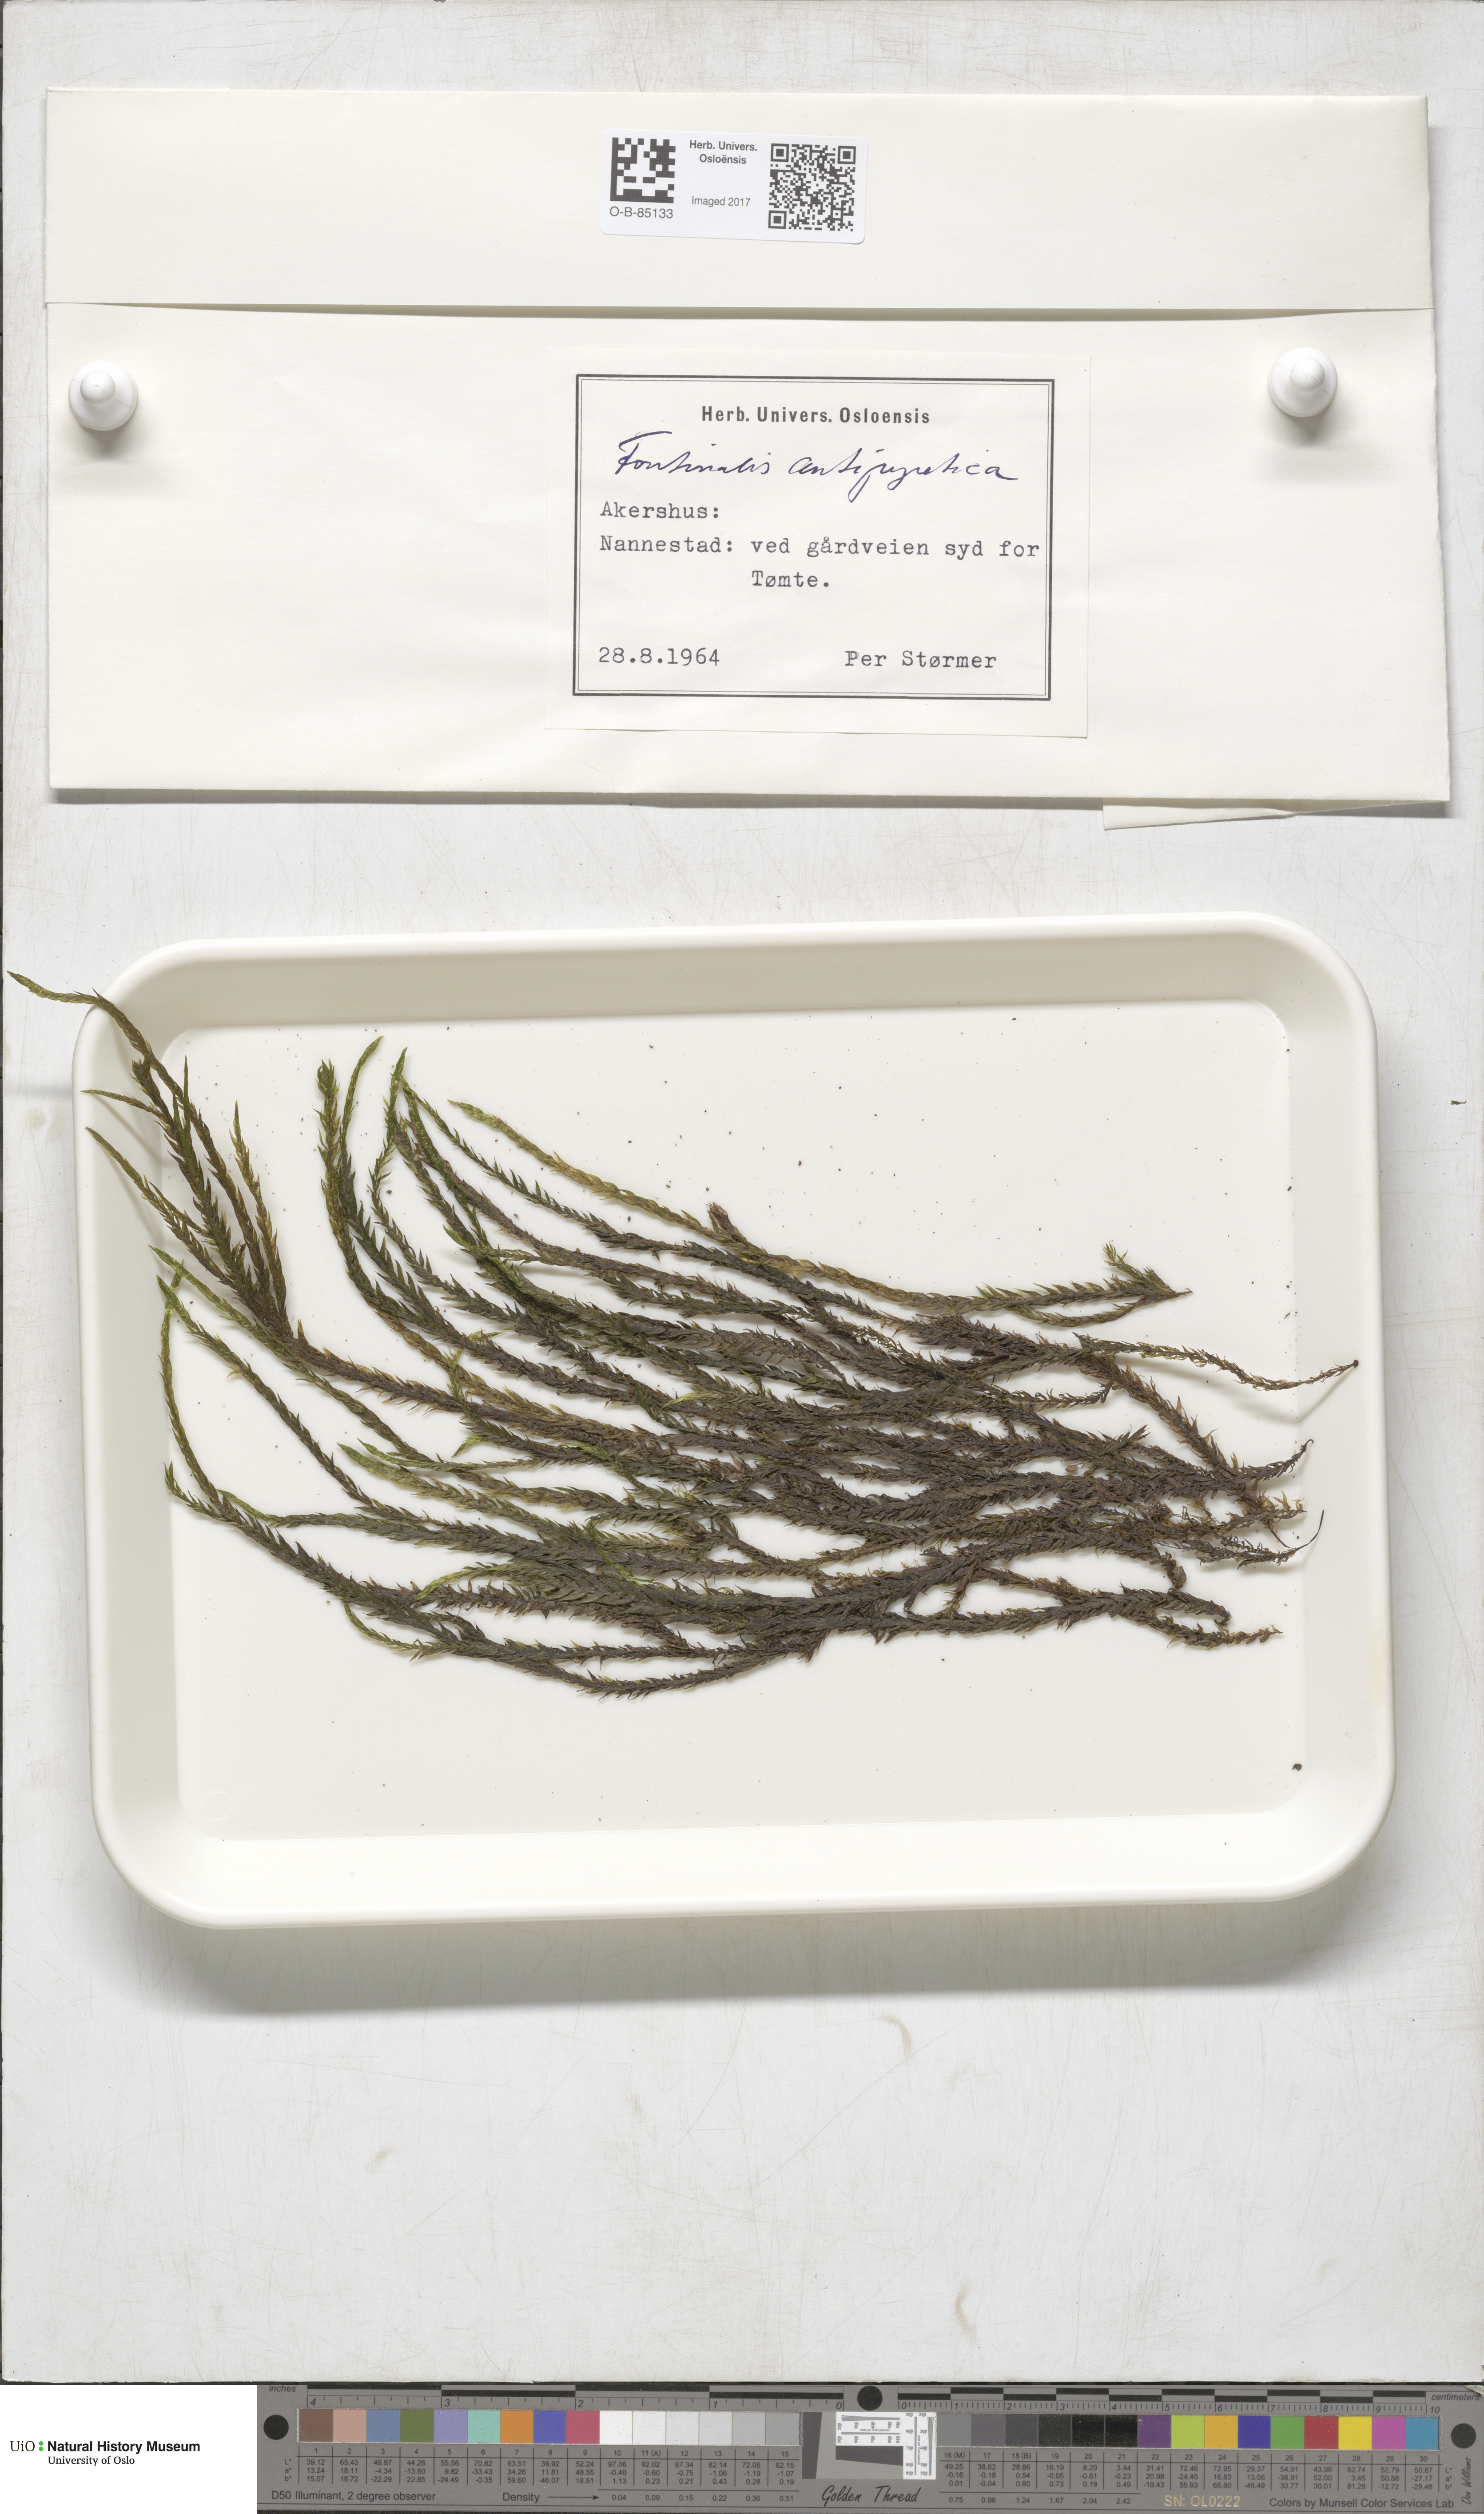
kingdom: Plantae
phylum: Bryophyta
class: Bryopsida
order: Hypnales
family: Fontinalaceae
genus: Fontinalis
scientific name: Fontinalis antipyretica
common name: Greater water-moss
